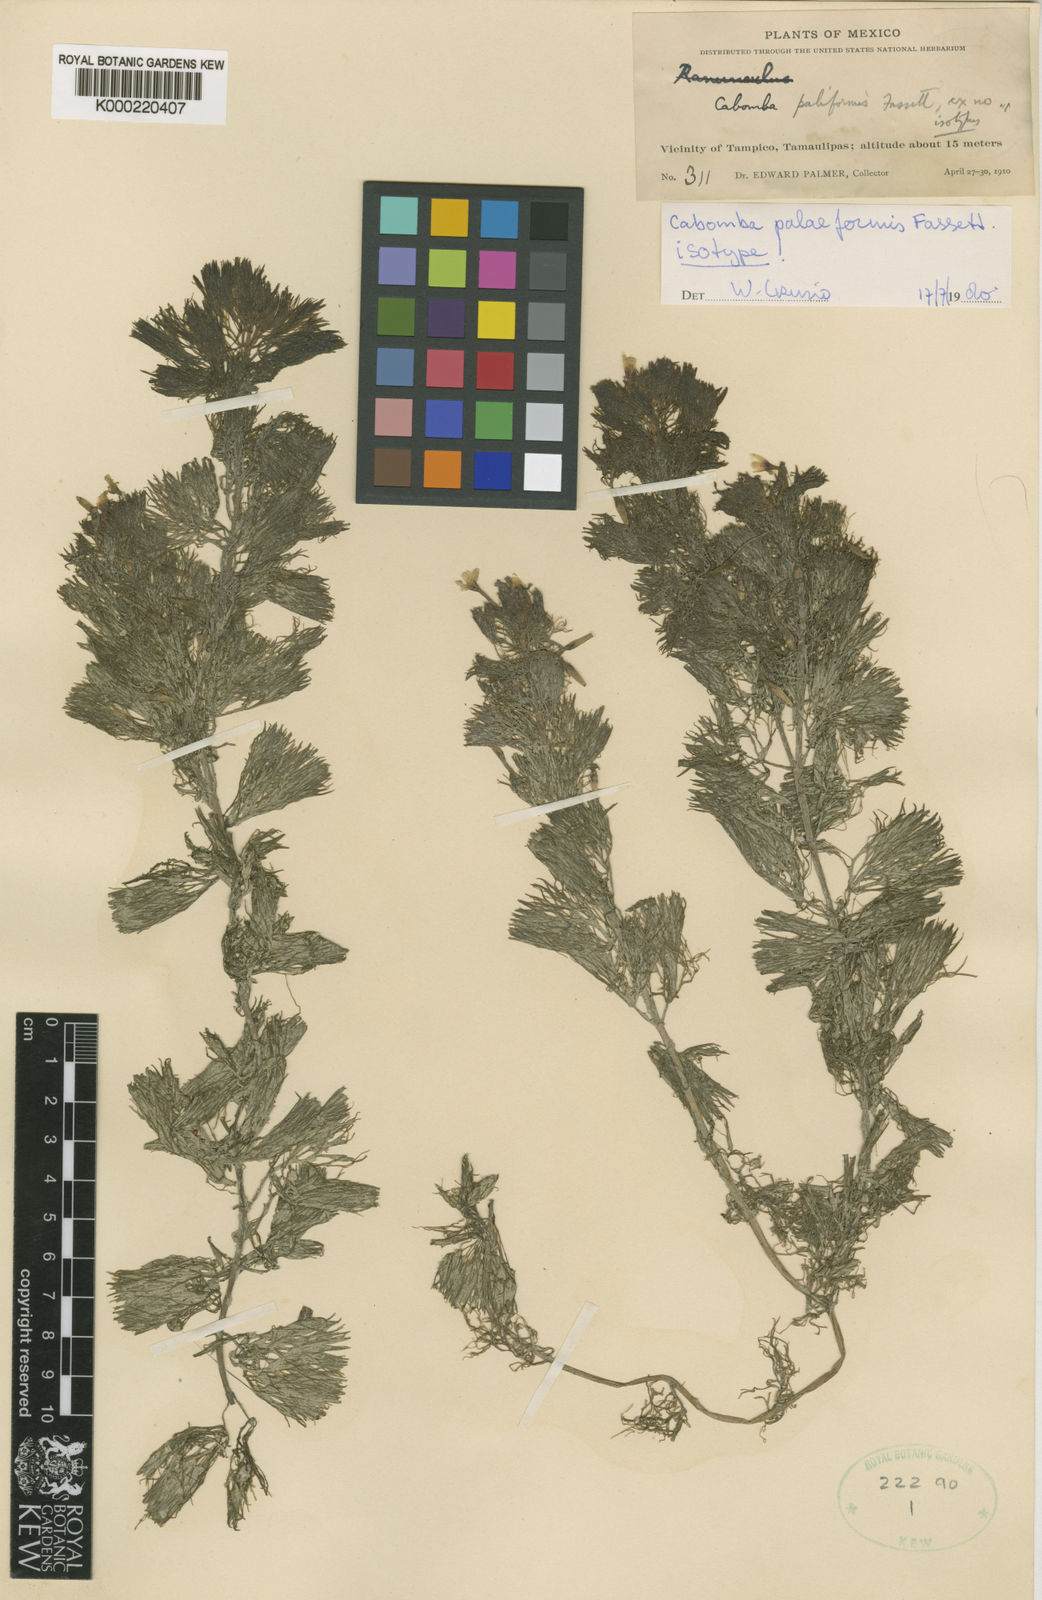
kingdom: Plantae
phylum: Tracheophyta
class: Magnoliopsida
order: Nymphaeales
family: Cabombaceae
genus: Cabomba
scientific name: Cabomba palaeformis
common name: Fish-grass
